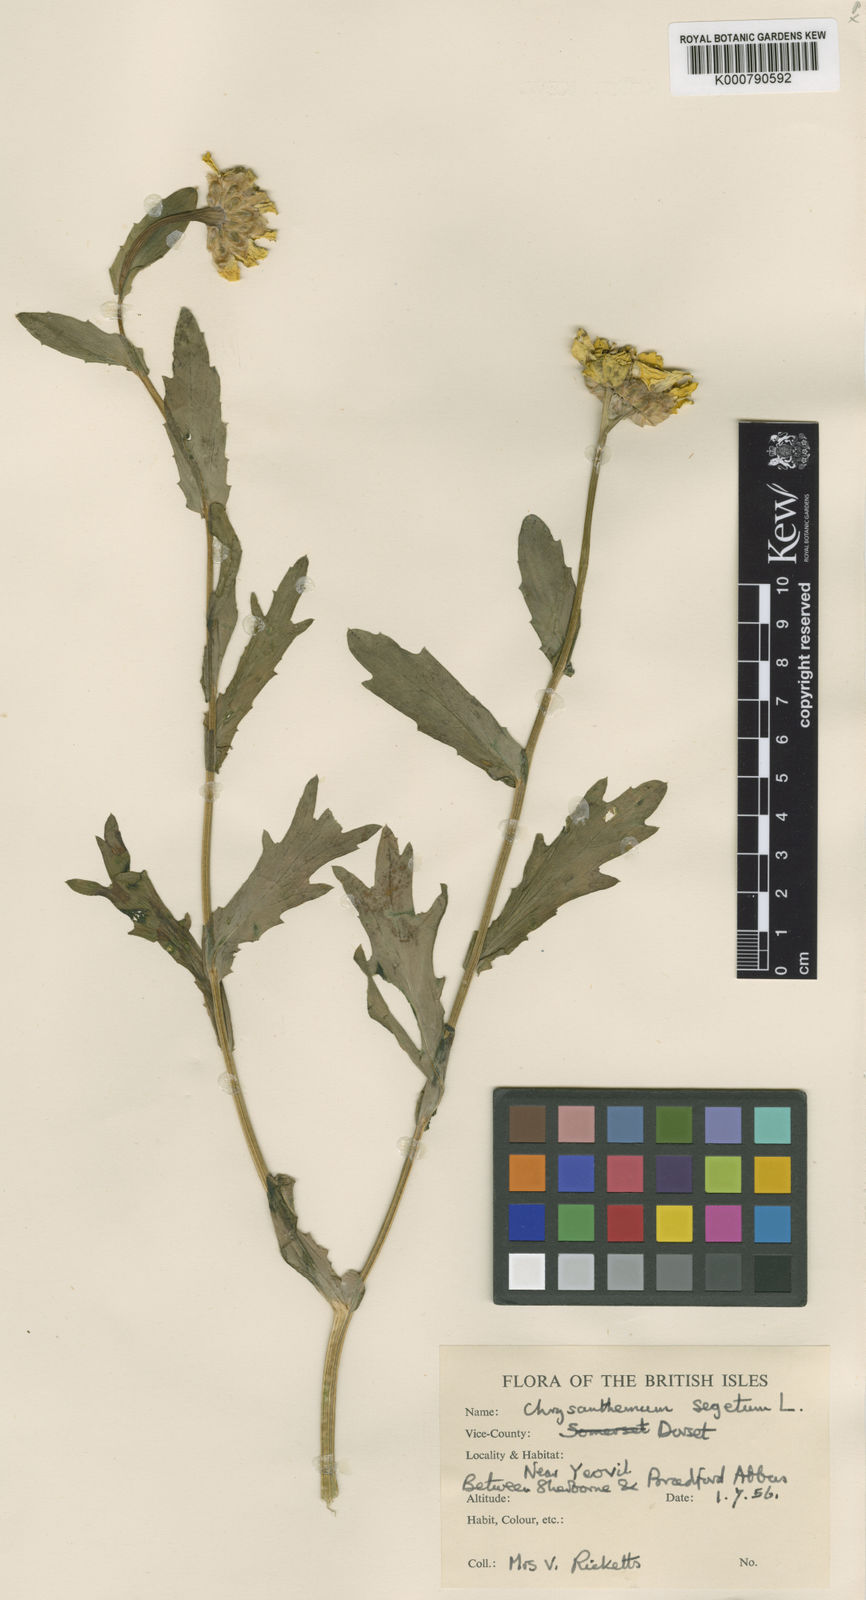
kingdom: Plantae
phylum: Tracheophyta
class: Magnoliopsida
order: Asterales
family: Asteraceae
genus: Glebionis
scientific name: Glebionis
